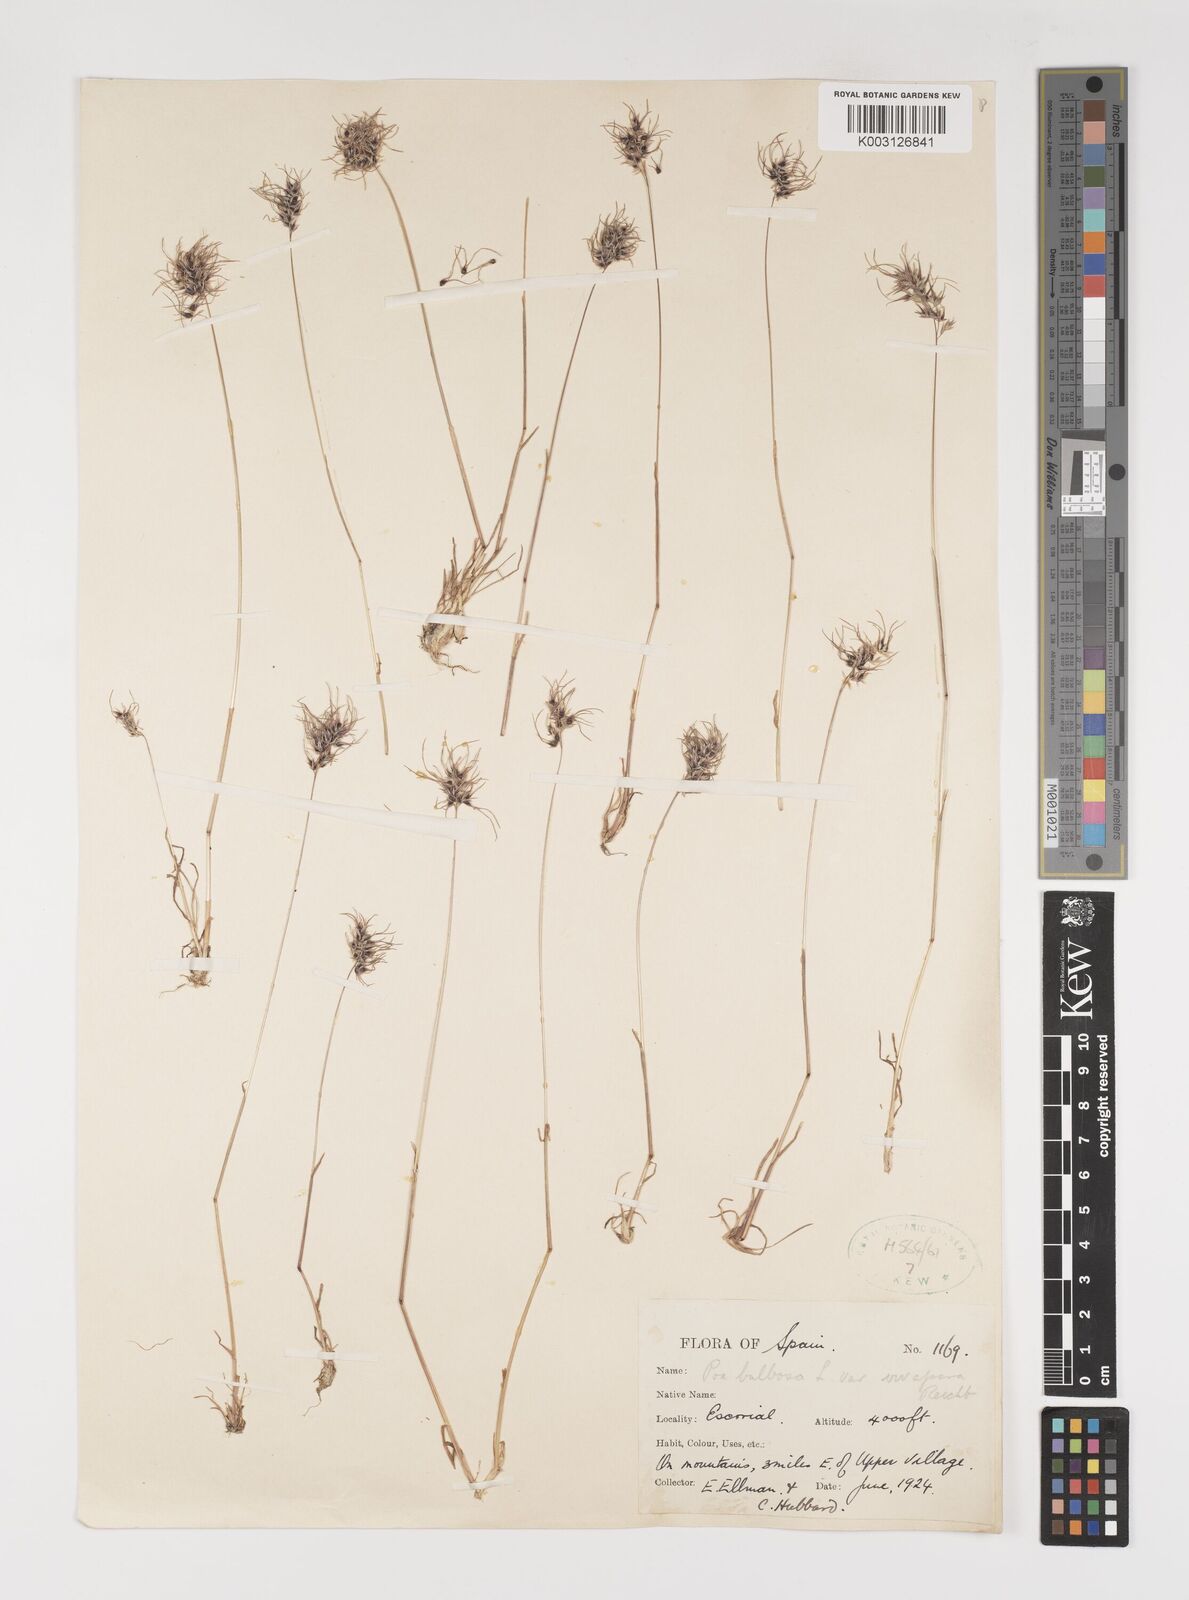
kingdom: Plantae
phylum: Tracheophyta
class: Liliopsida
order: Poales
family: Poaceae
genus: Poa
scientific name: Poa bulbosa
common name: Bulbous bluegrass
